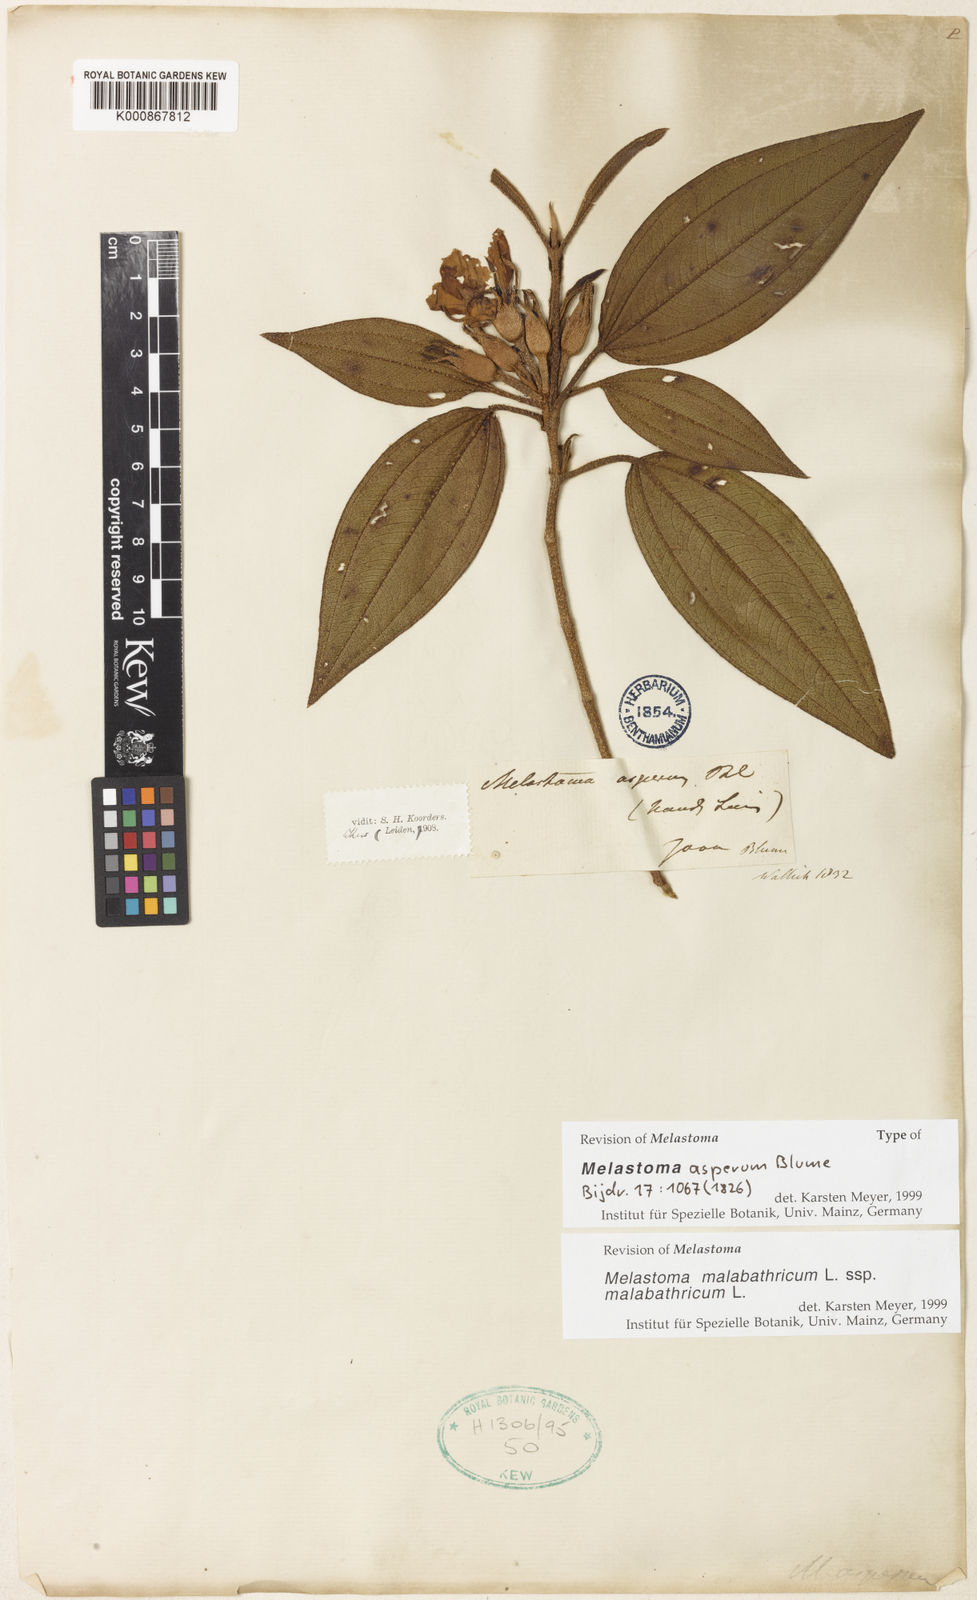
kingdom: Plantae
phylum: Tracheophyta
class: Magnoliopsida
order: Myrtales
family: Melastomataceae
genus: Melastoma
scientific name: Melastoma malabathricum
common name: Indian-rhododendron
